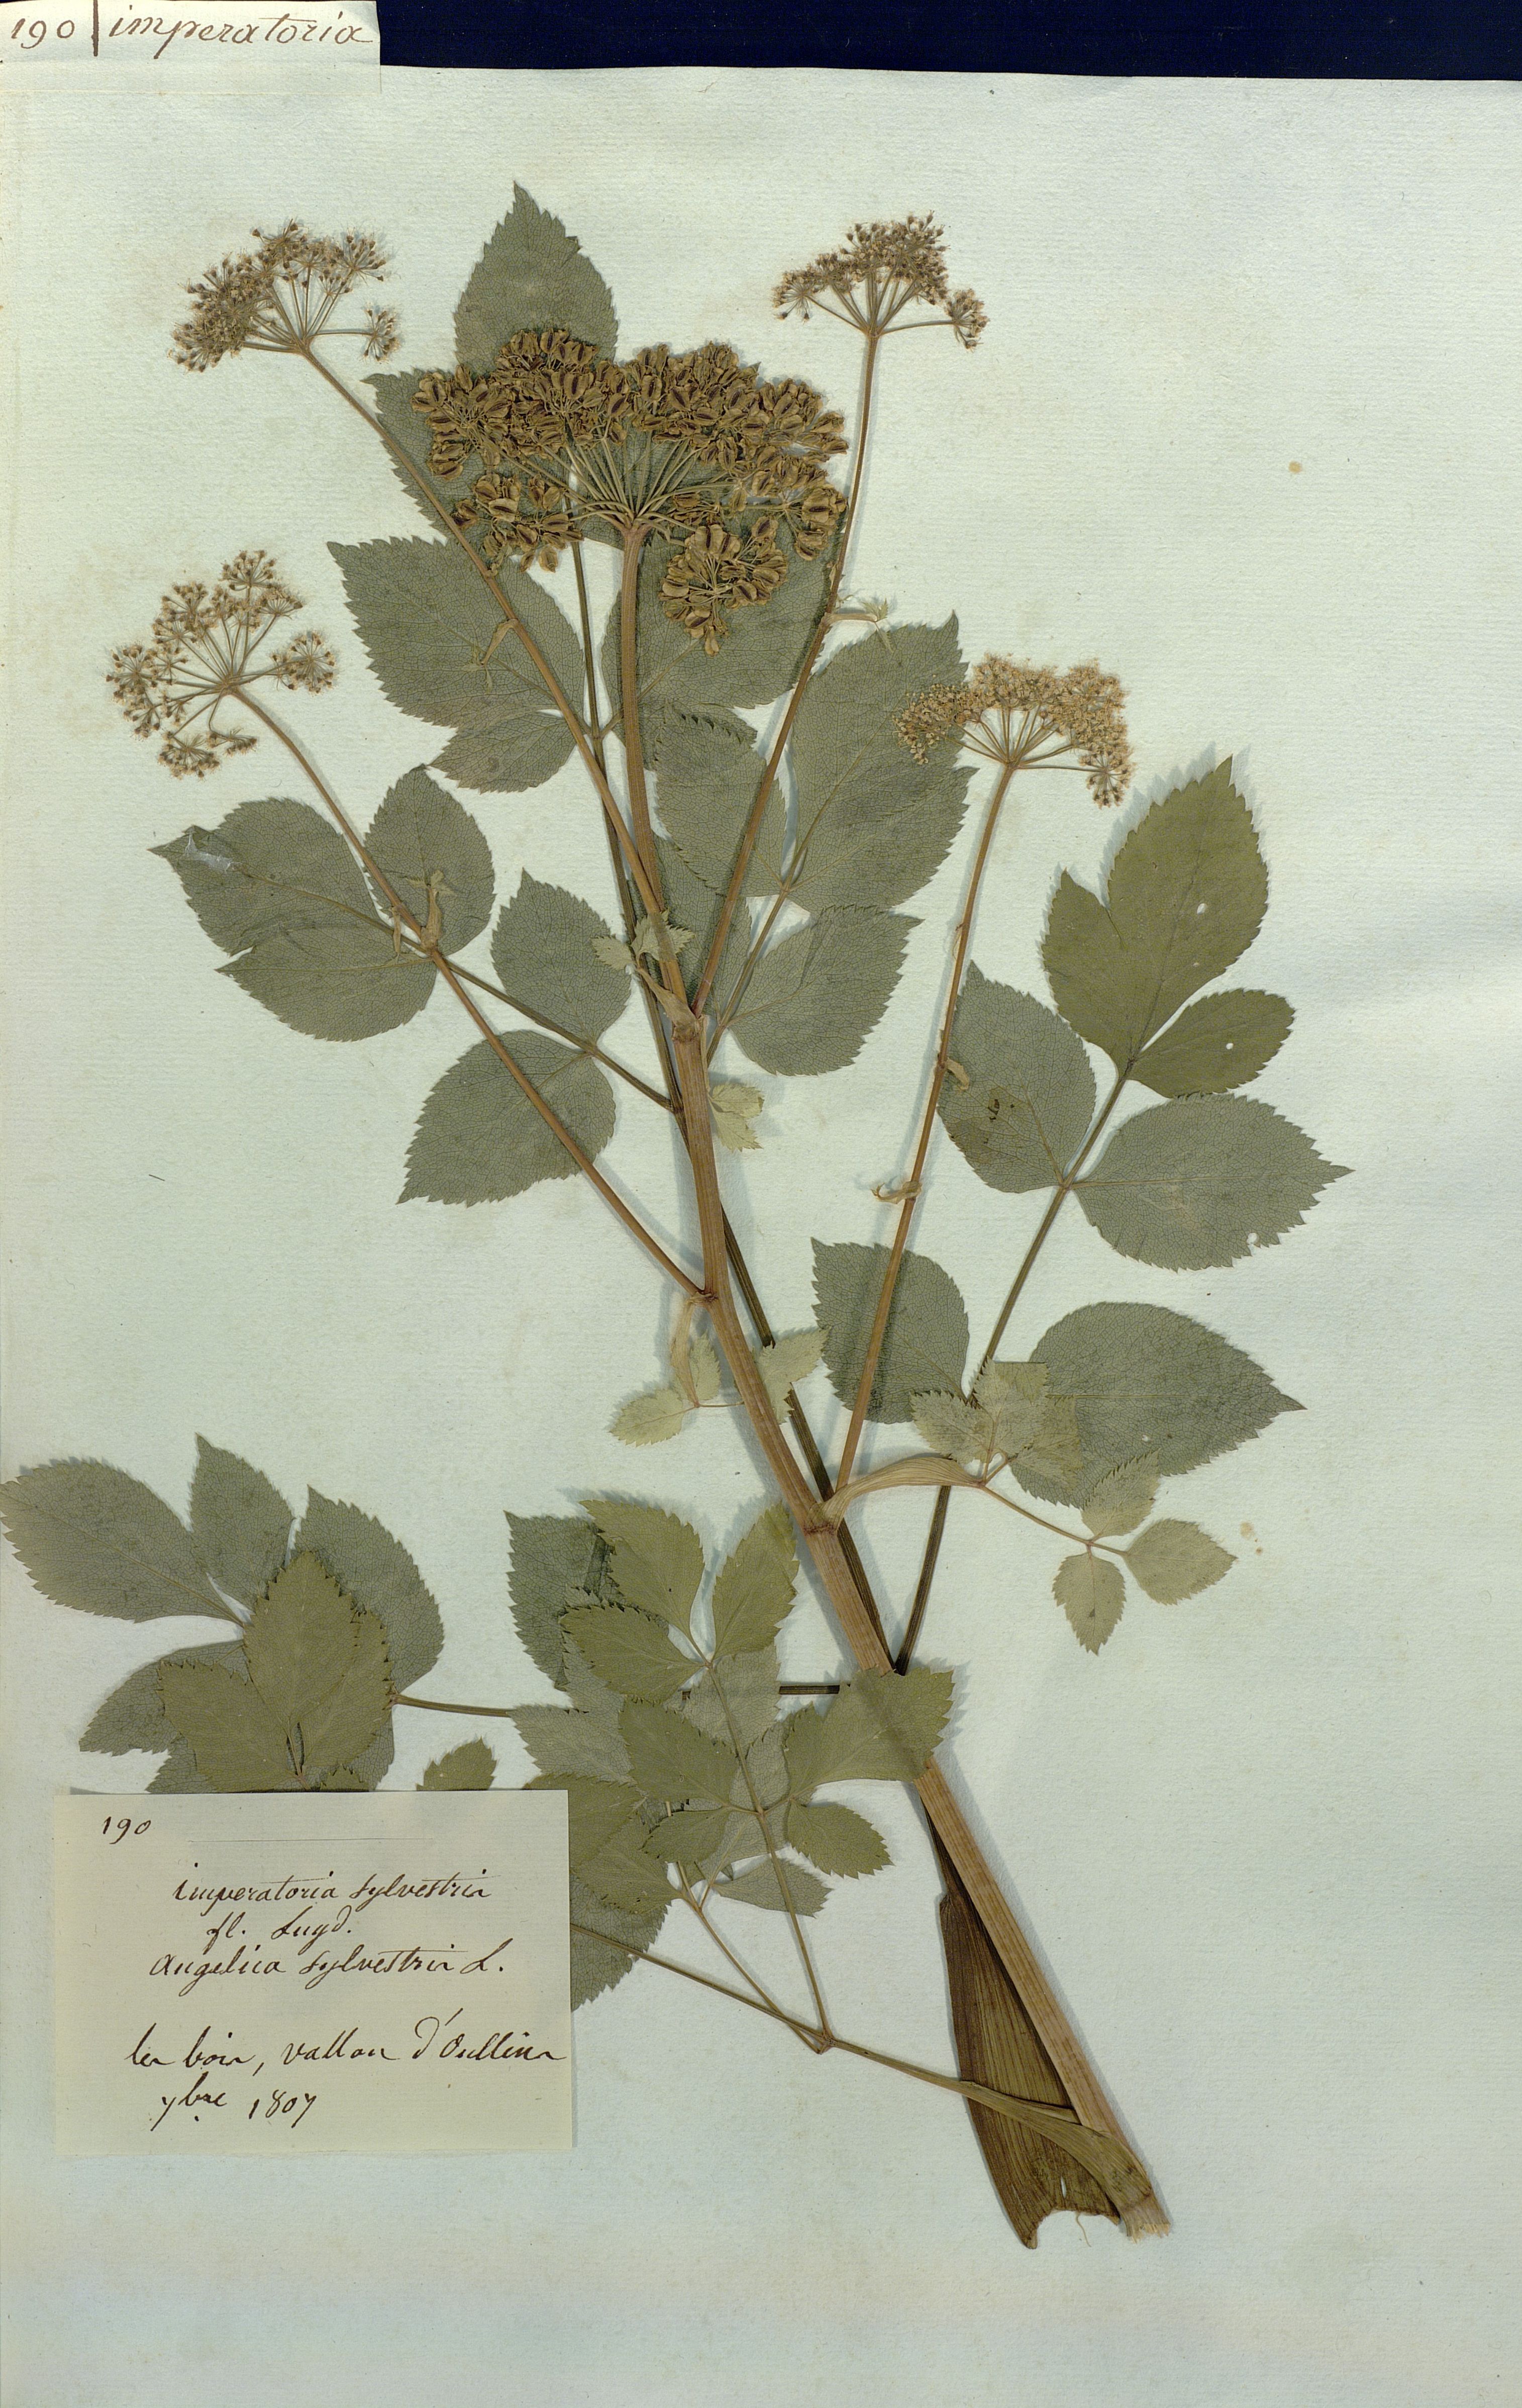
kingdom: Plantae
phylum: Tracheophyta
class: Magnoliopsida
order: Apiales
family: Apiaceae
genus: Angelica
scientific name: Angelica sylvestris
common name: Wild angelica
